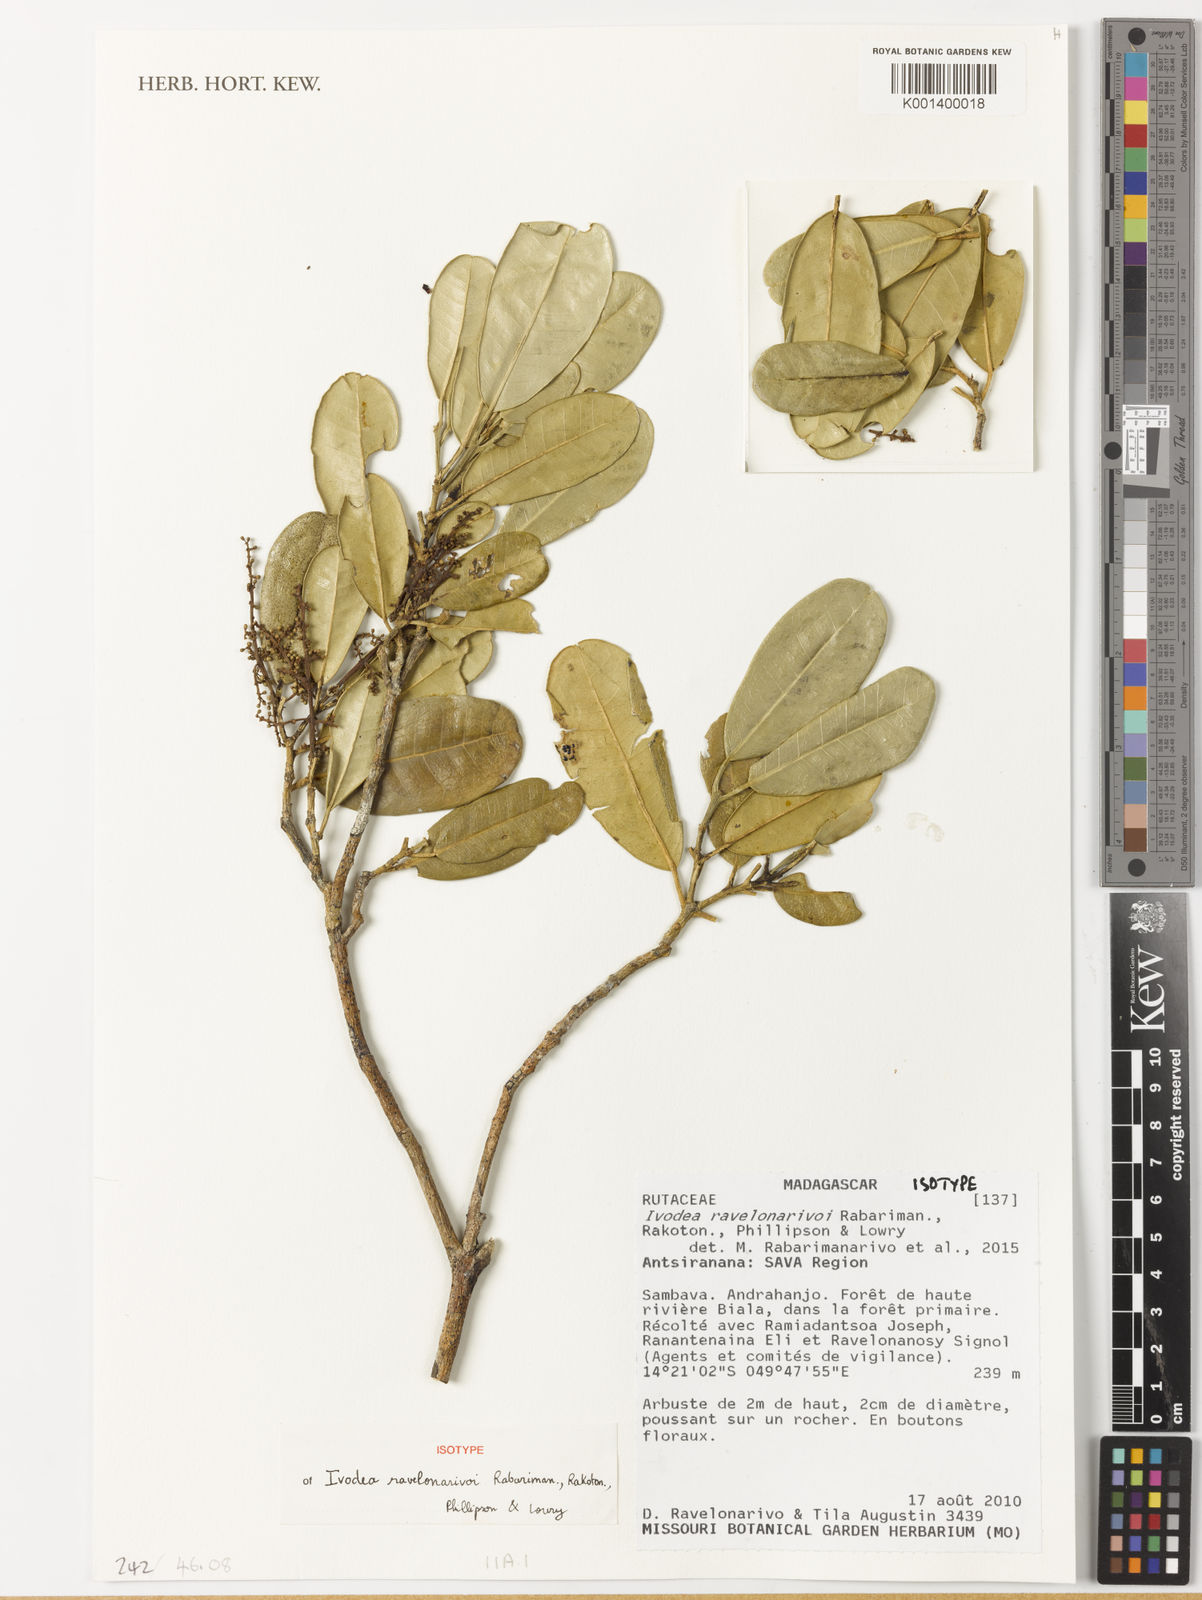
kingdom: Plantae
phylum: Tracheophyta
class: Magnoliopsida
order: Sapindales
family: Rutaceae
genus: Ivodea
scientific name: Ivodea ravelonarivoi
